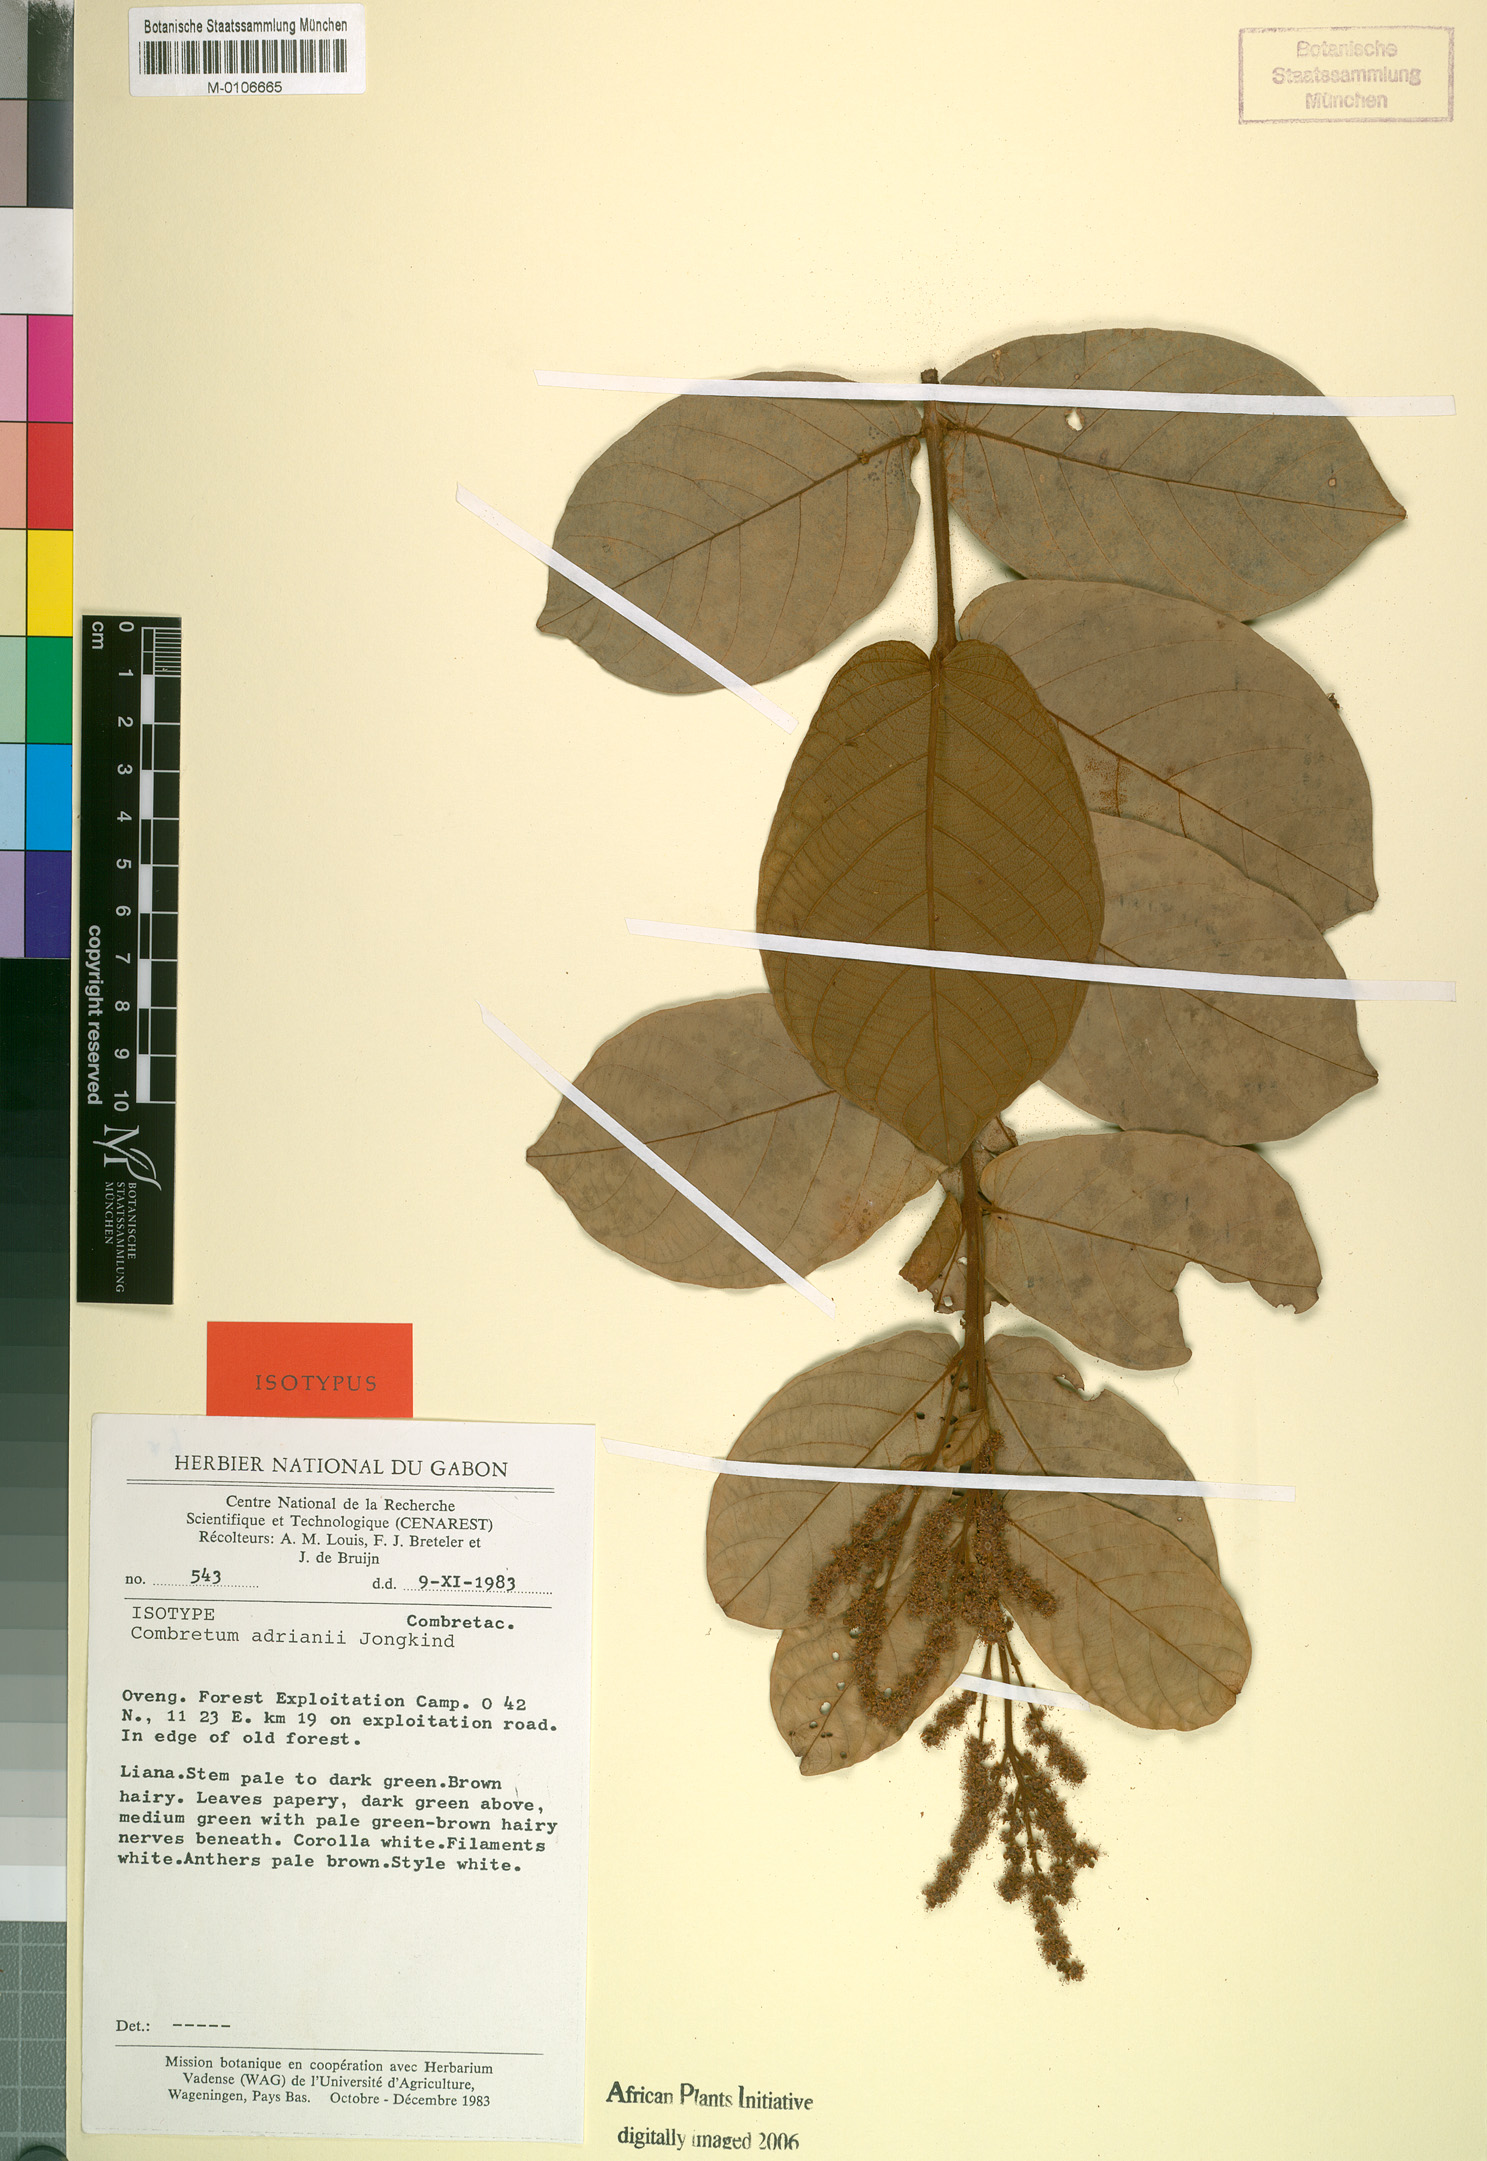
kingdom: Plantae
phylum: Tracheophyta
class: Magnoliopsida
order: Myrtales
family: Combretaceae
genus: Combretum
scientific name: Combretum adrianii
